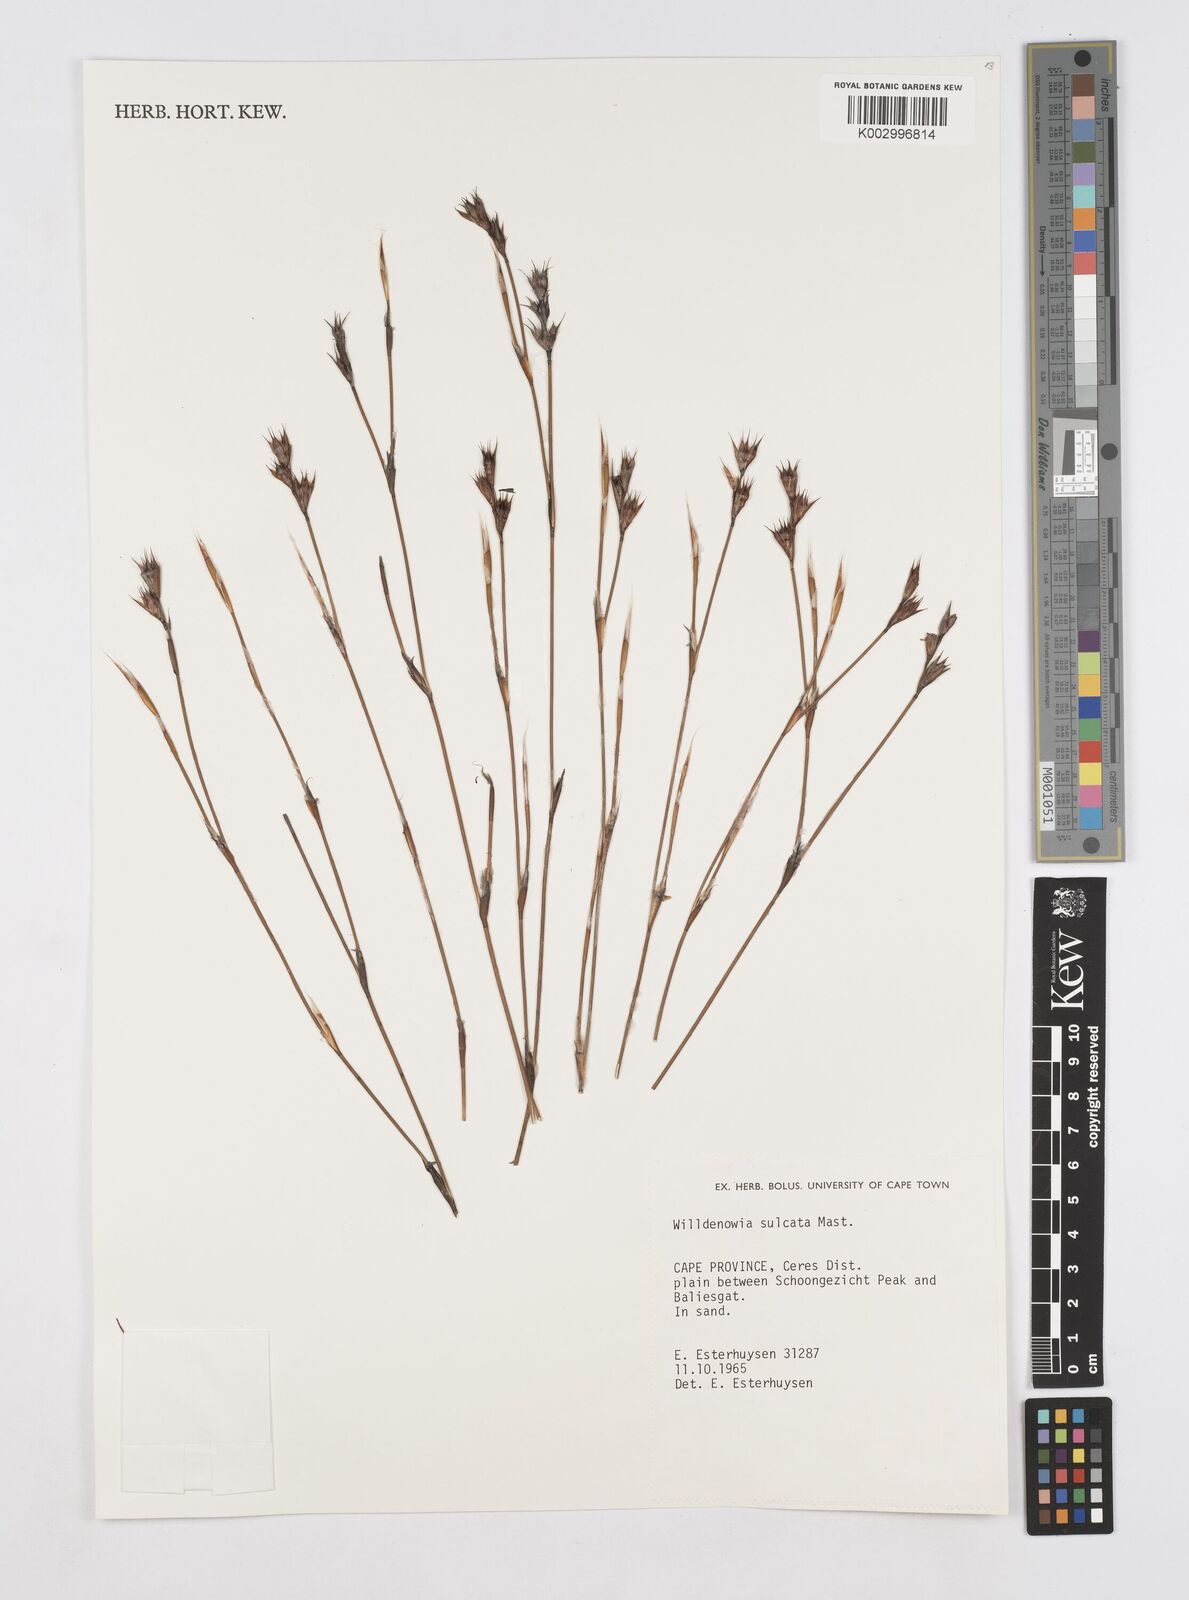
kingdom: Plantae
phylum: Tracheophyta
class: Liliopsida
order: Poales
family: Restionaceae
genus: Willdenowia
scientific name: Willdenowia sulcata
